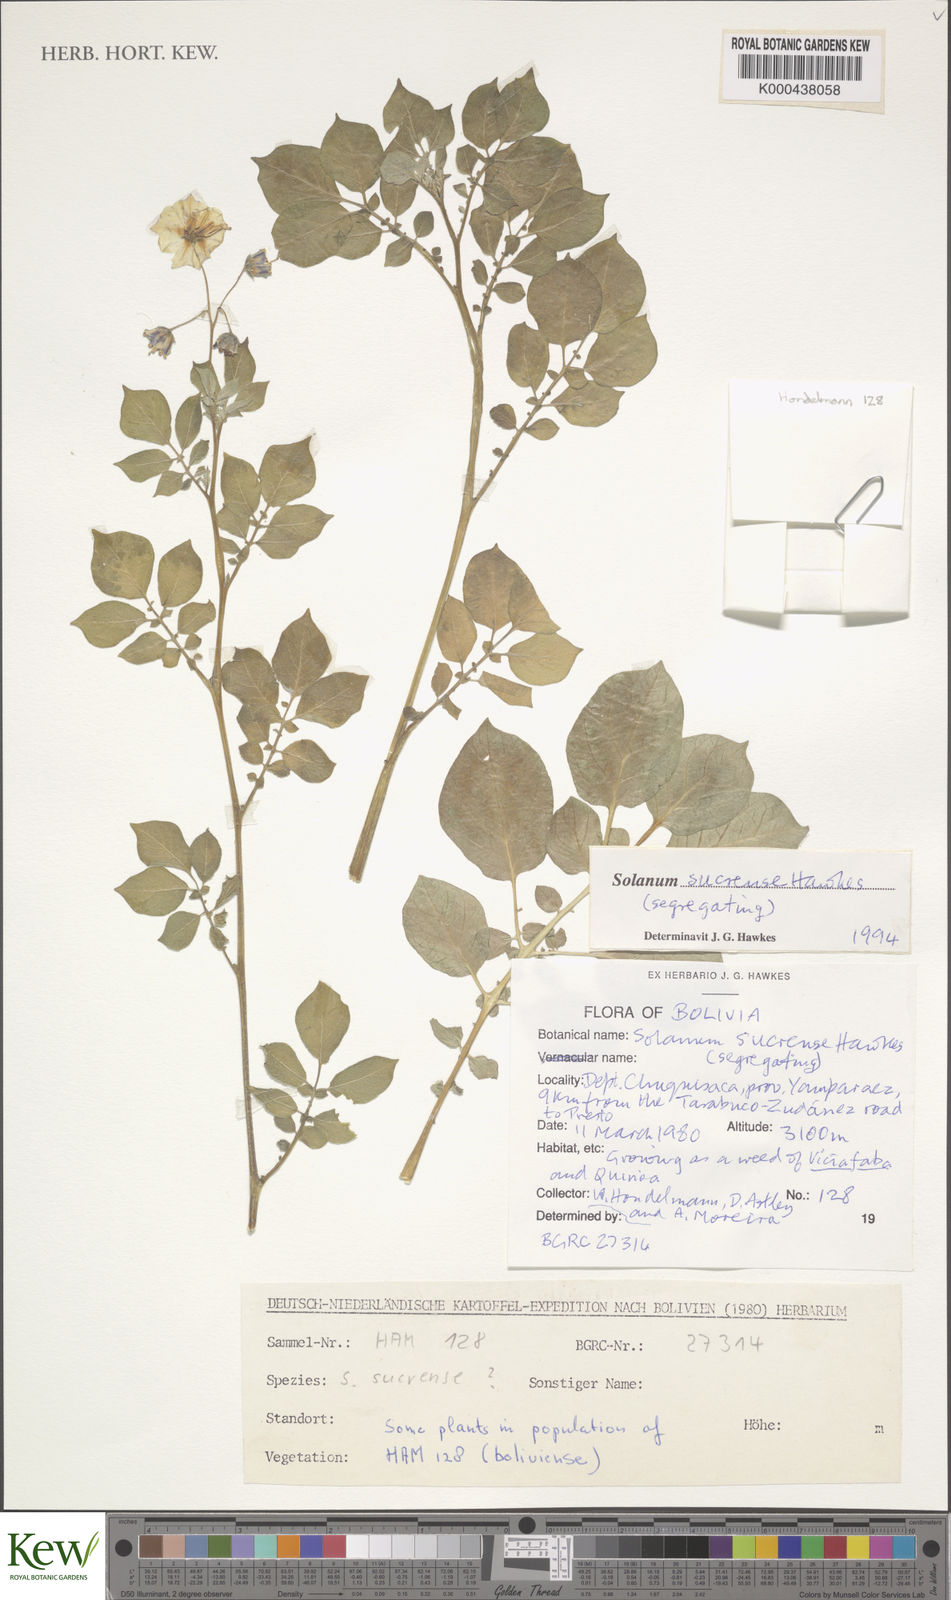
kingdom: Plantae
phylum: Tracheophyta
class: Magnoliopsida
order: Solanales
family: Solanaceae
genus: Solanum
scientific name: Solanum brevicaule
